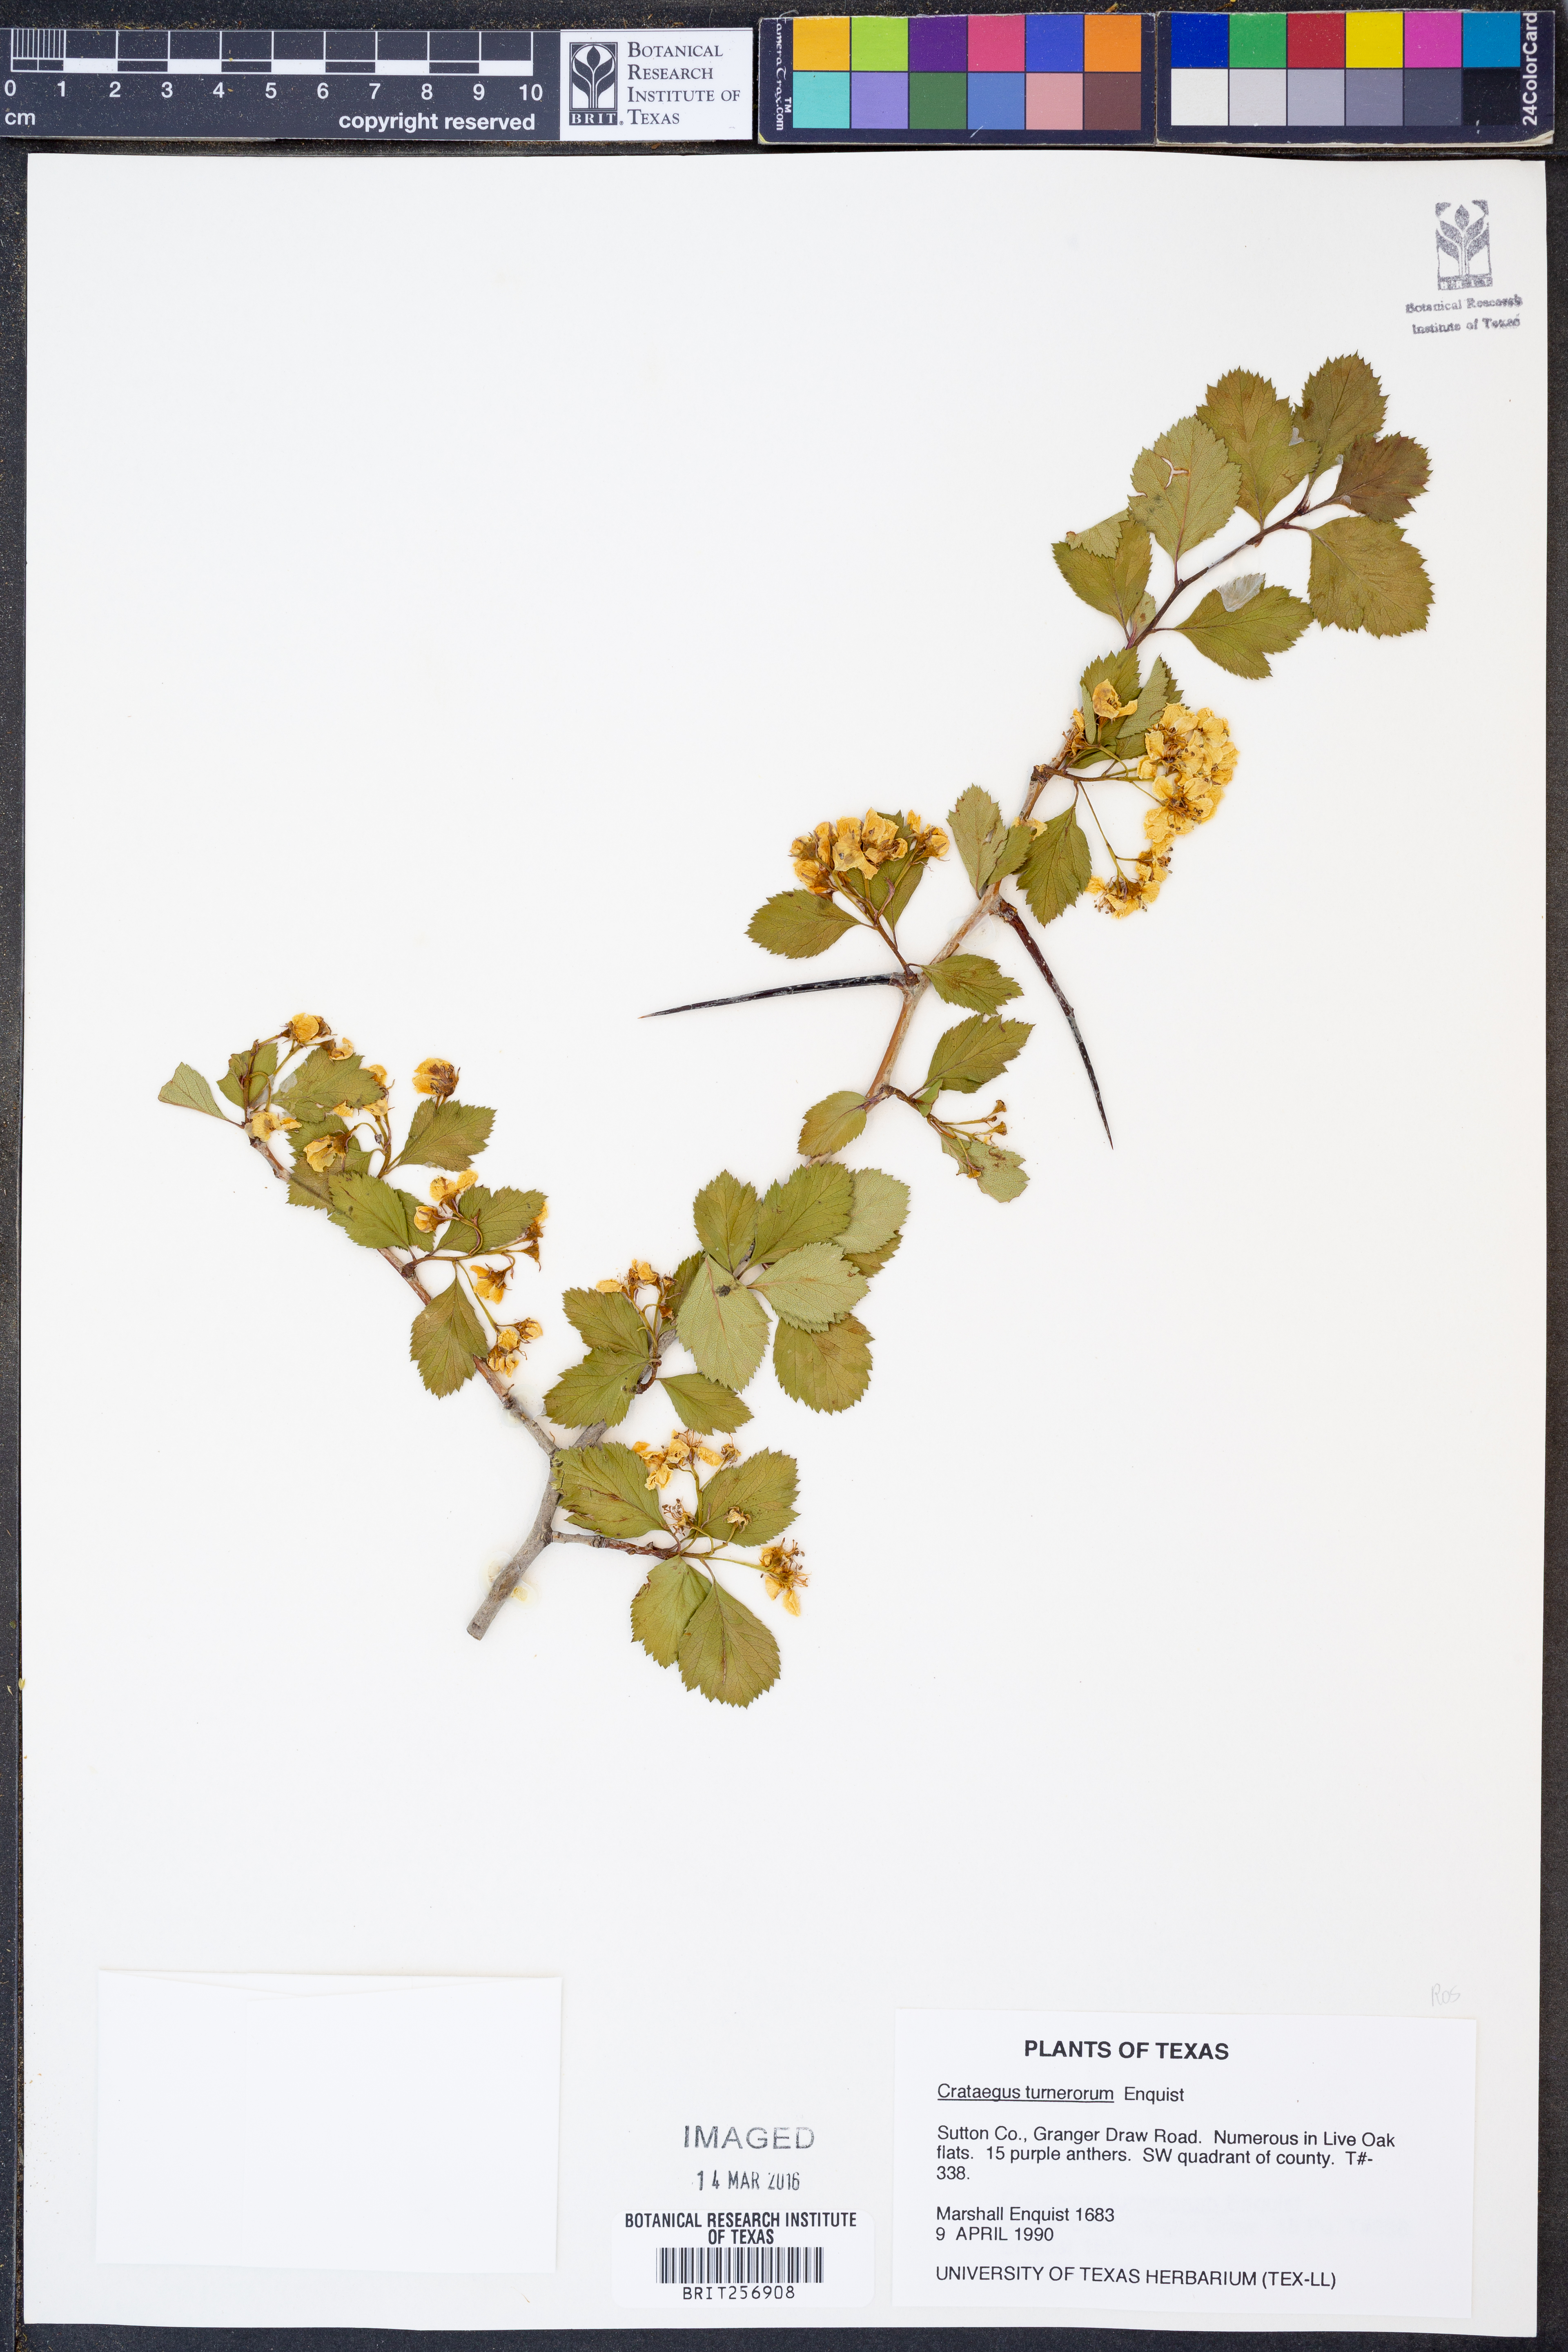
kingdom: Plantae
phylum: Tracheophyta
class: Magnoliopsida
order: Rosales
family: Rosaceae
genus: Crataegus
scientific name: Crataegus turnerorum
